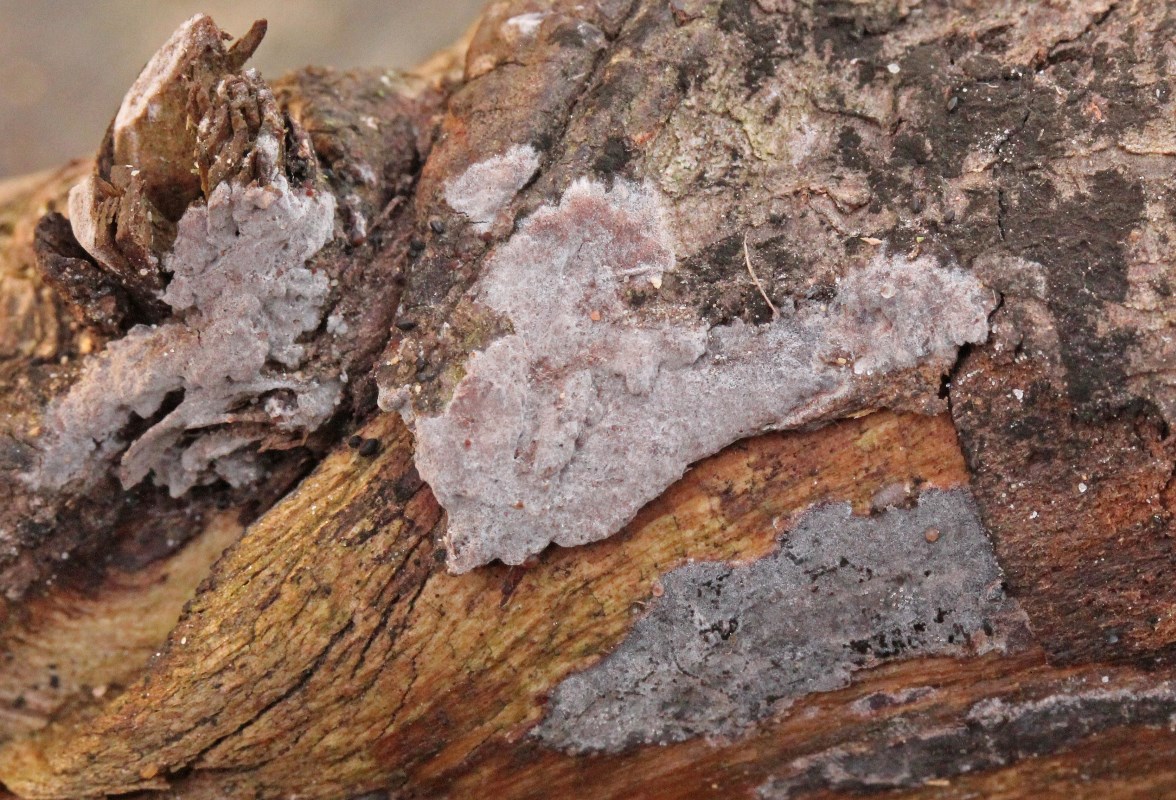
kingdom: Fungi
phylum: Basidiomycota
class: Agaricomycetes
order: Russulales
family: Peniophoraceae
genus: Peniophora
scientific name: Peniophora lycii
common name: grynet voksskind
